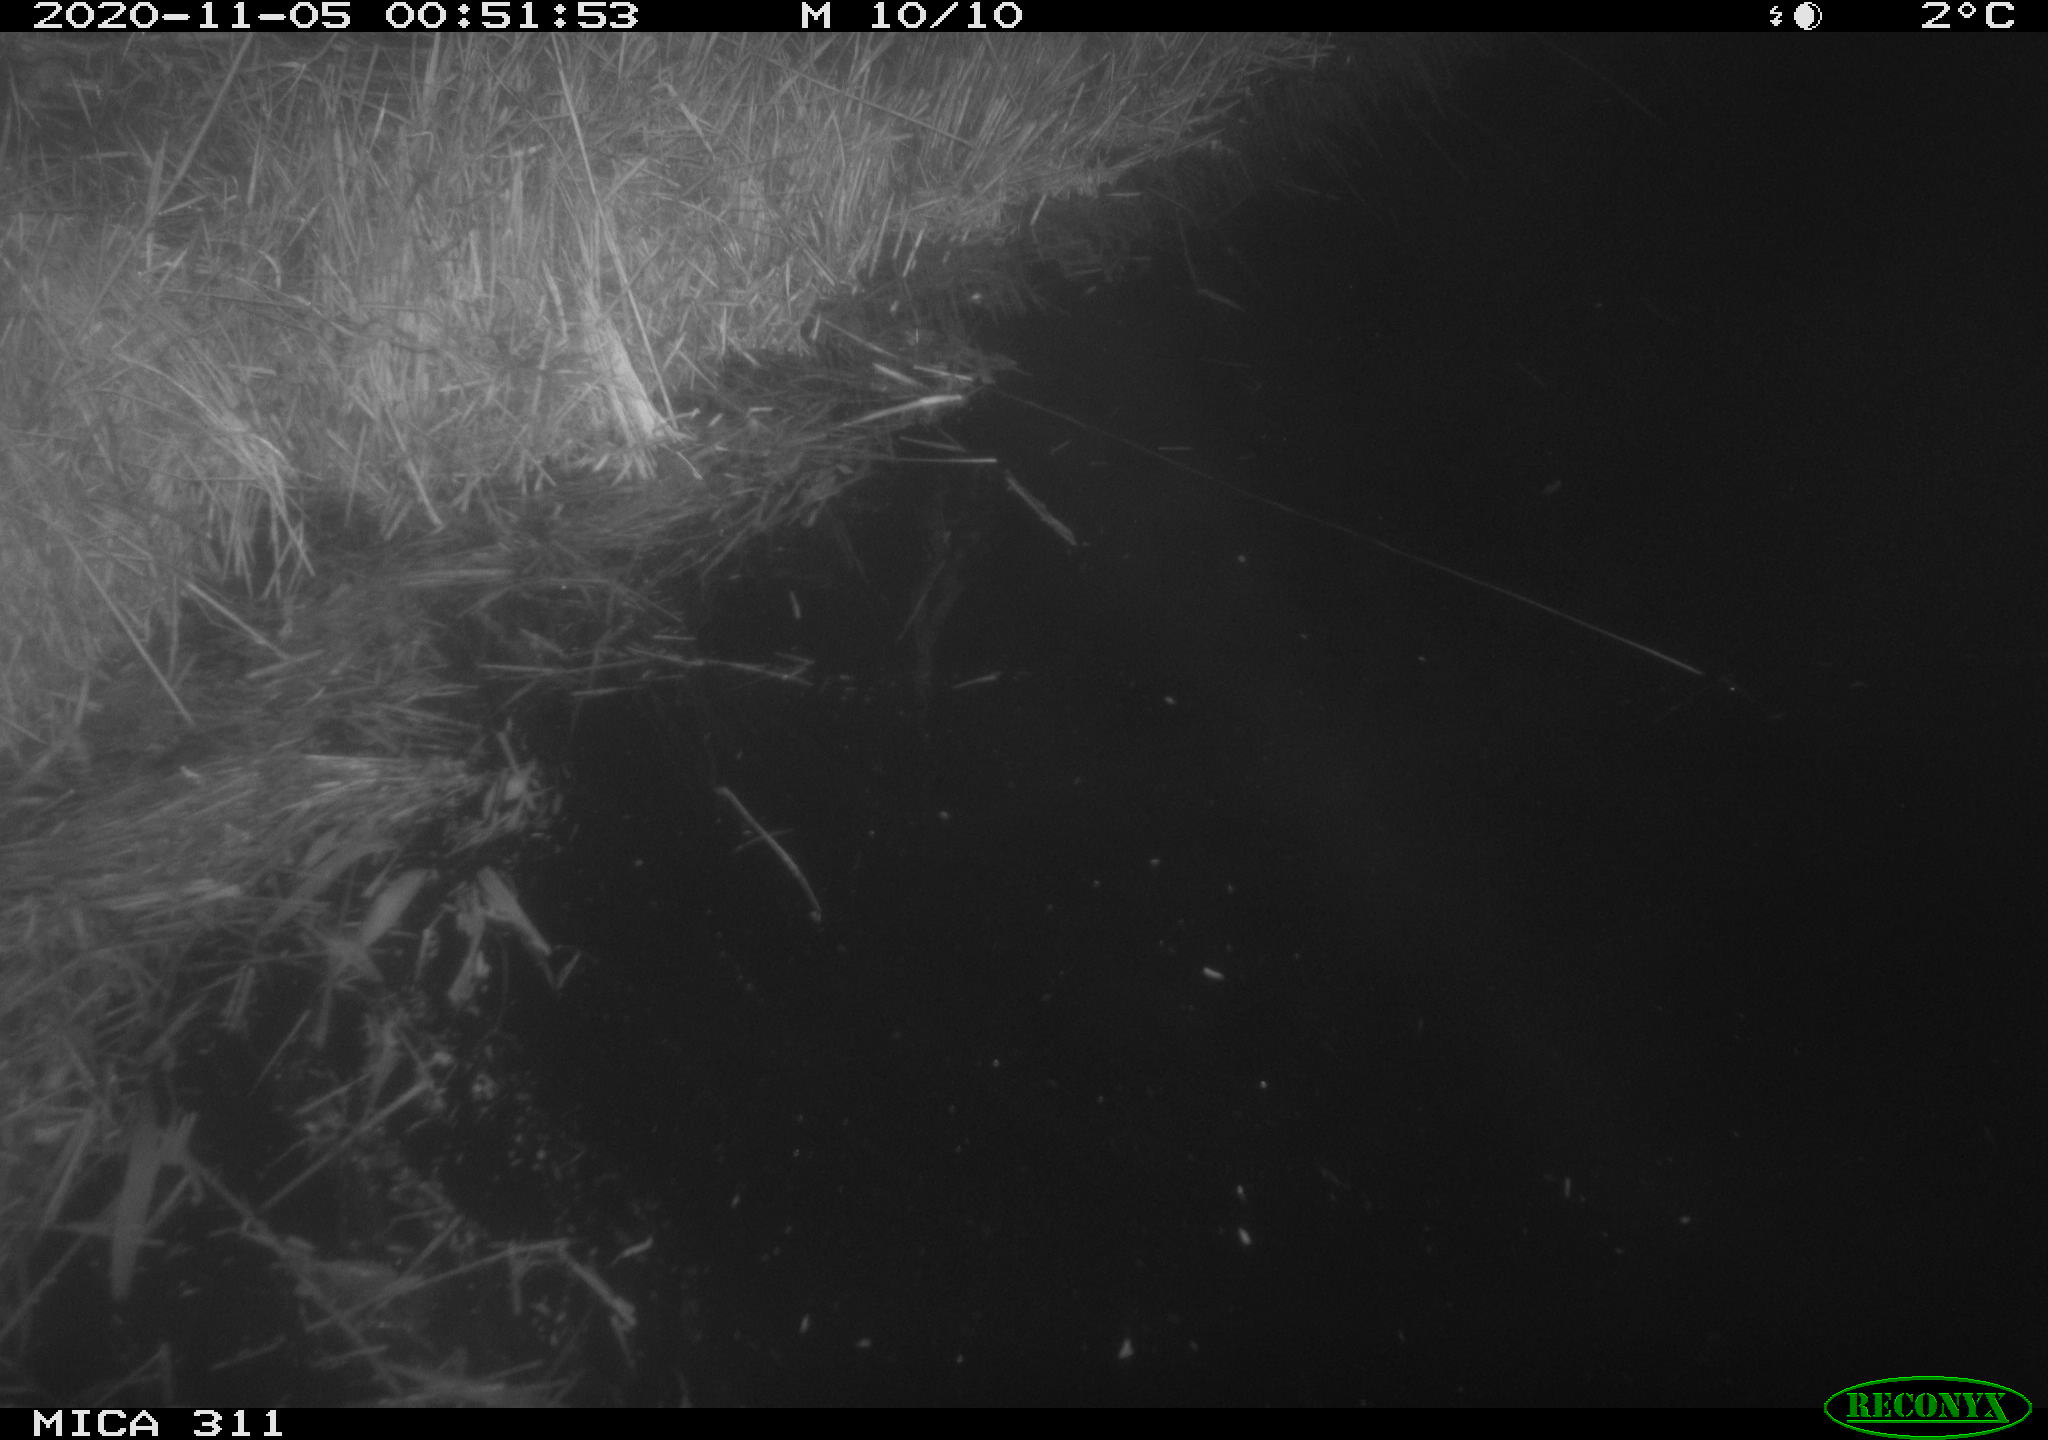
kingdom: Animalia
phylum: Chordata
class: Mammalia
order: Rodentia
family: Muridae
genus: Rattus
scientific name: Rattus norvegicus
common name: Brown rat
